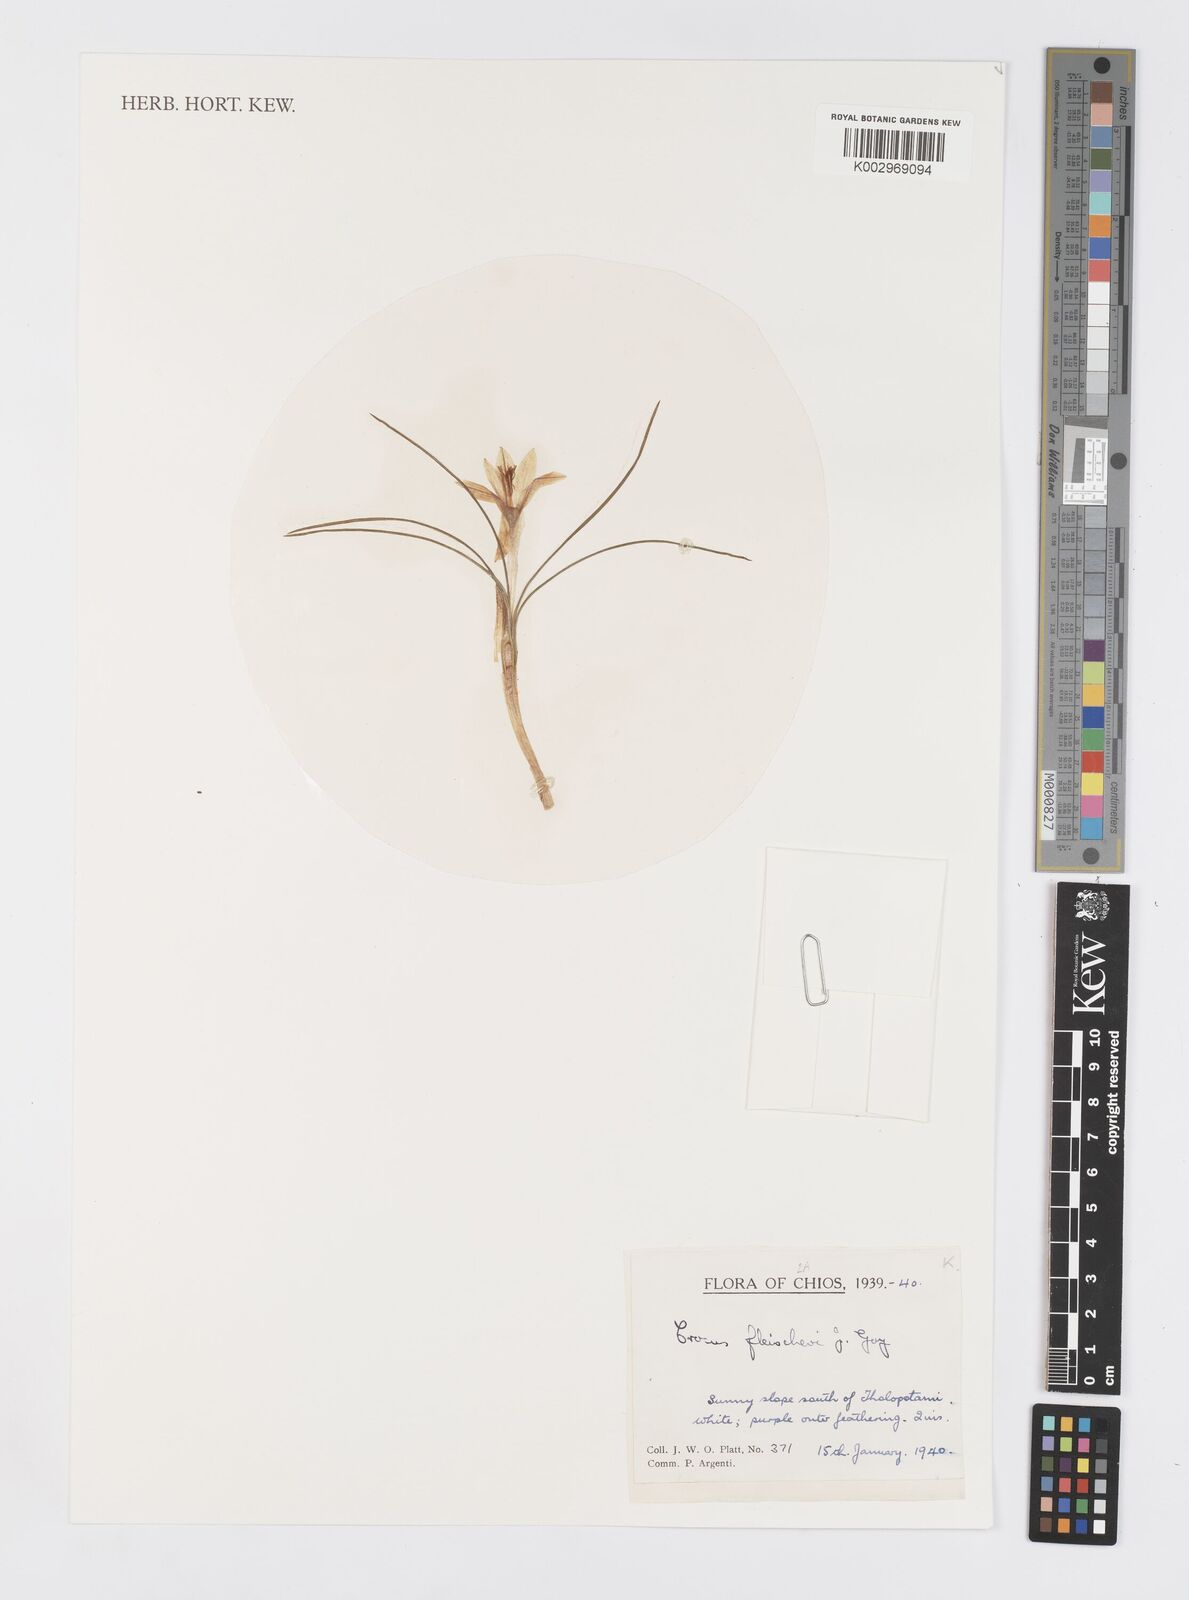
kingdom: Plantae
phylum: Tracheophyta
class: Liliopsida
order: Asparagales
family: Iridaceae
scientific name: Iridaceae
